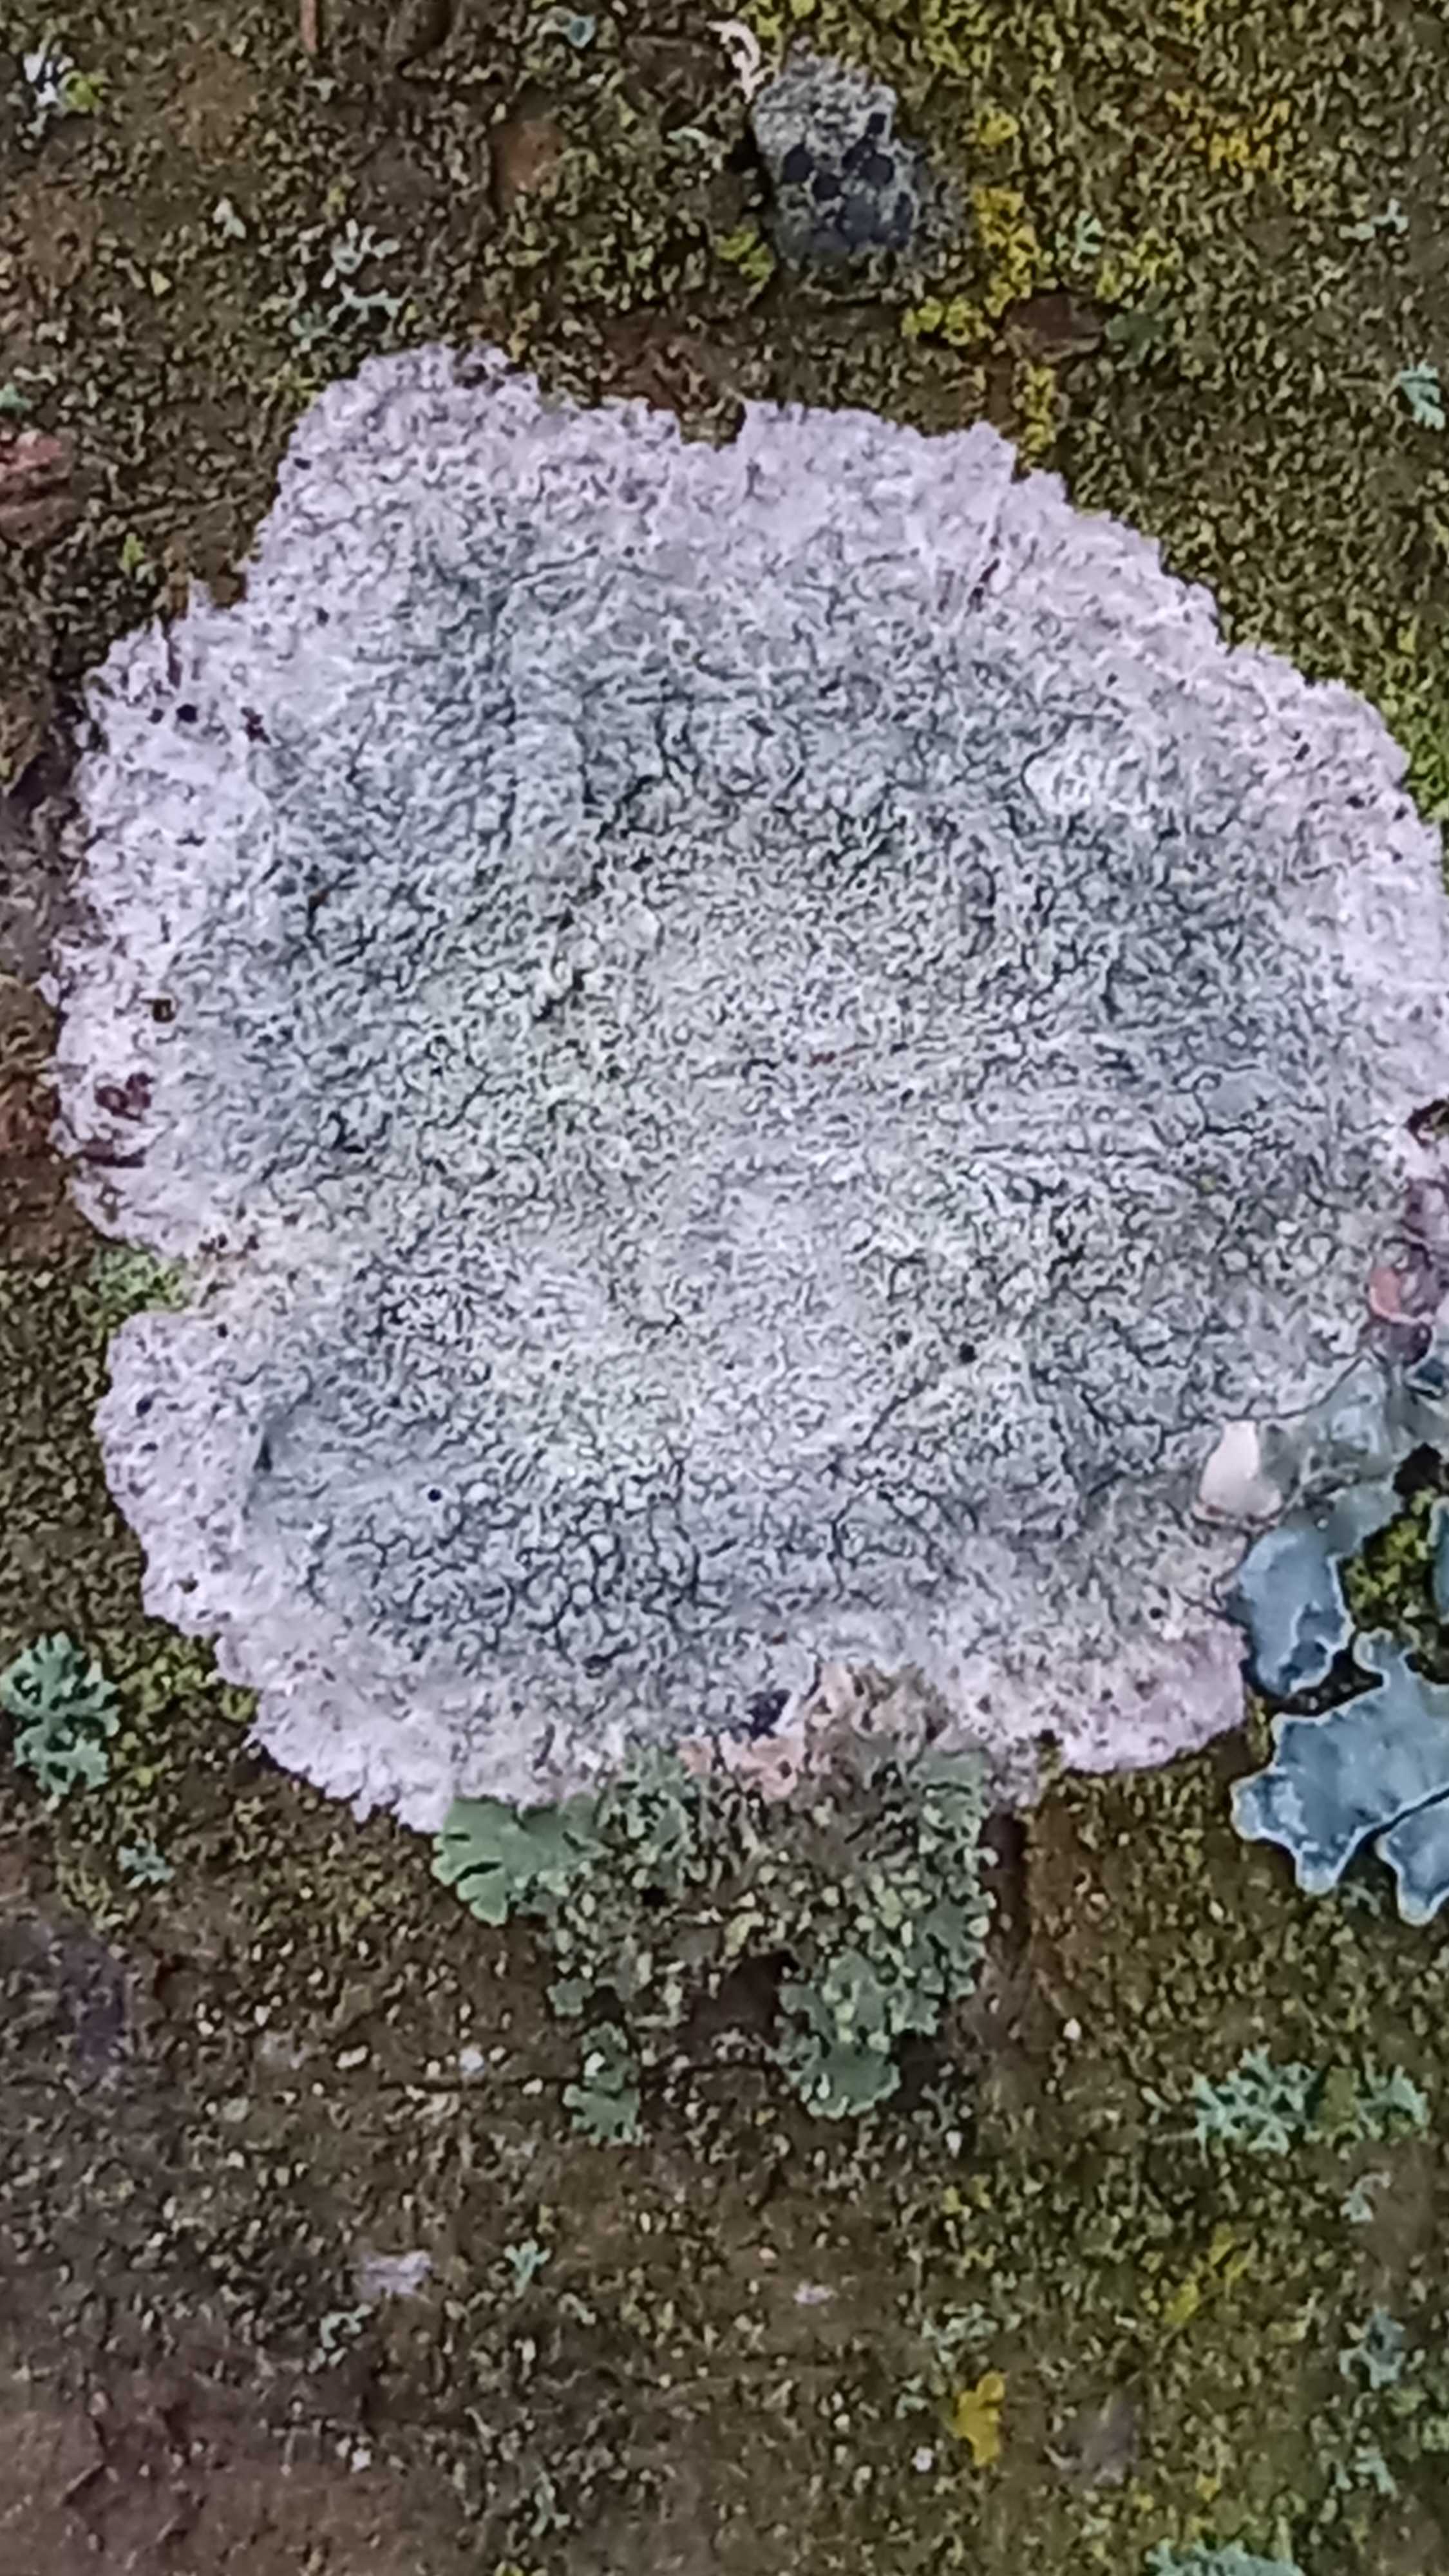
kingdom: Fungi
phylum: Ascomycota
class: Lecanoromycetes
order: Ostropales
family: Phlyctidaceae
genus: Phlyctis
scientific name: Phlyctis argena
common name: almindelig sølvlav
